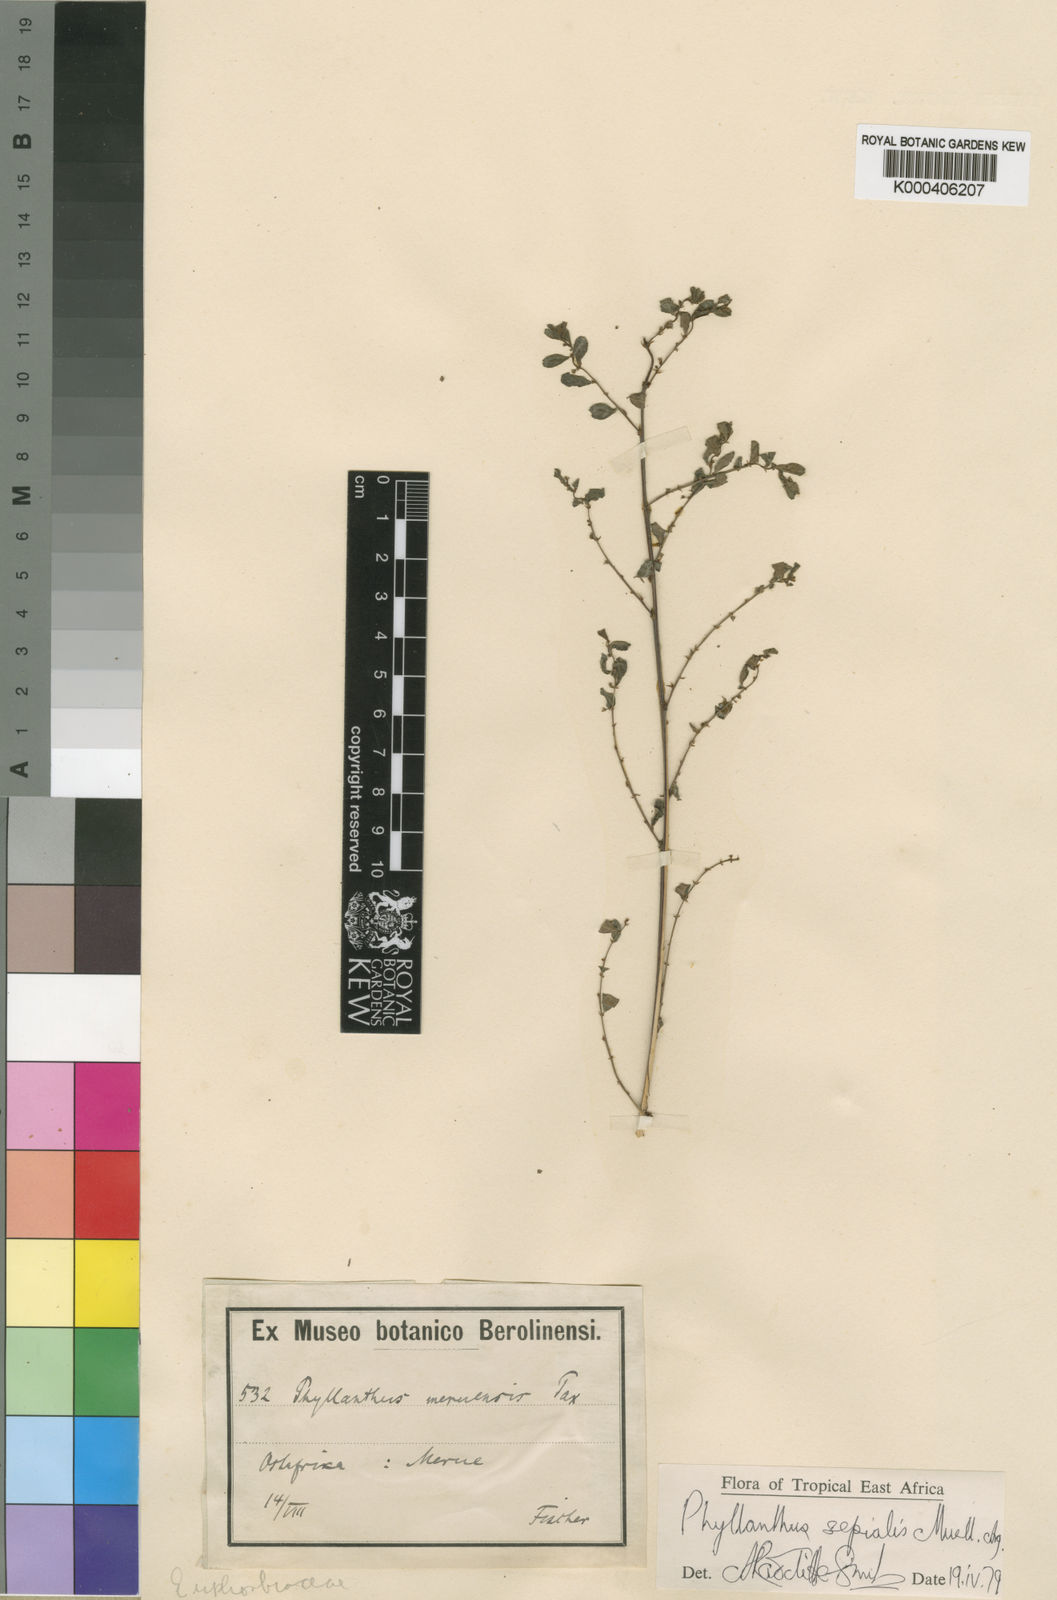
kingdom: Plantae
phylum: Tracheophyta
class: Magnoliopsida
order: Malpighiales
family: Phyllanthaceae
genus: Phyllanthus
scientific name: Phyllanthus
